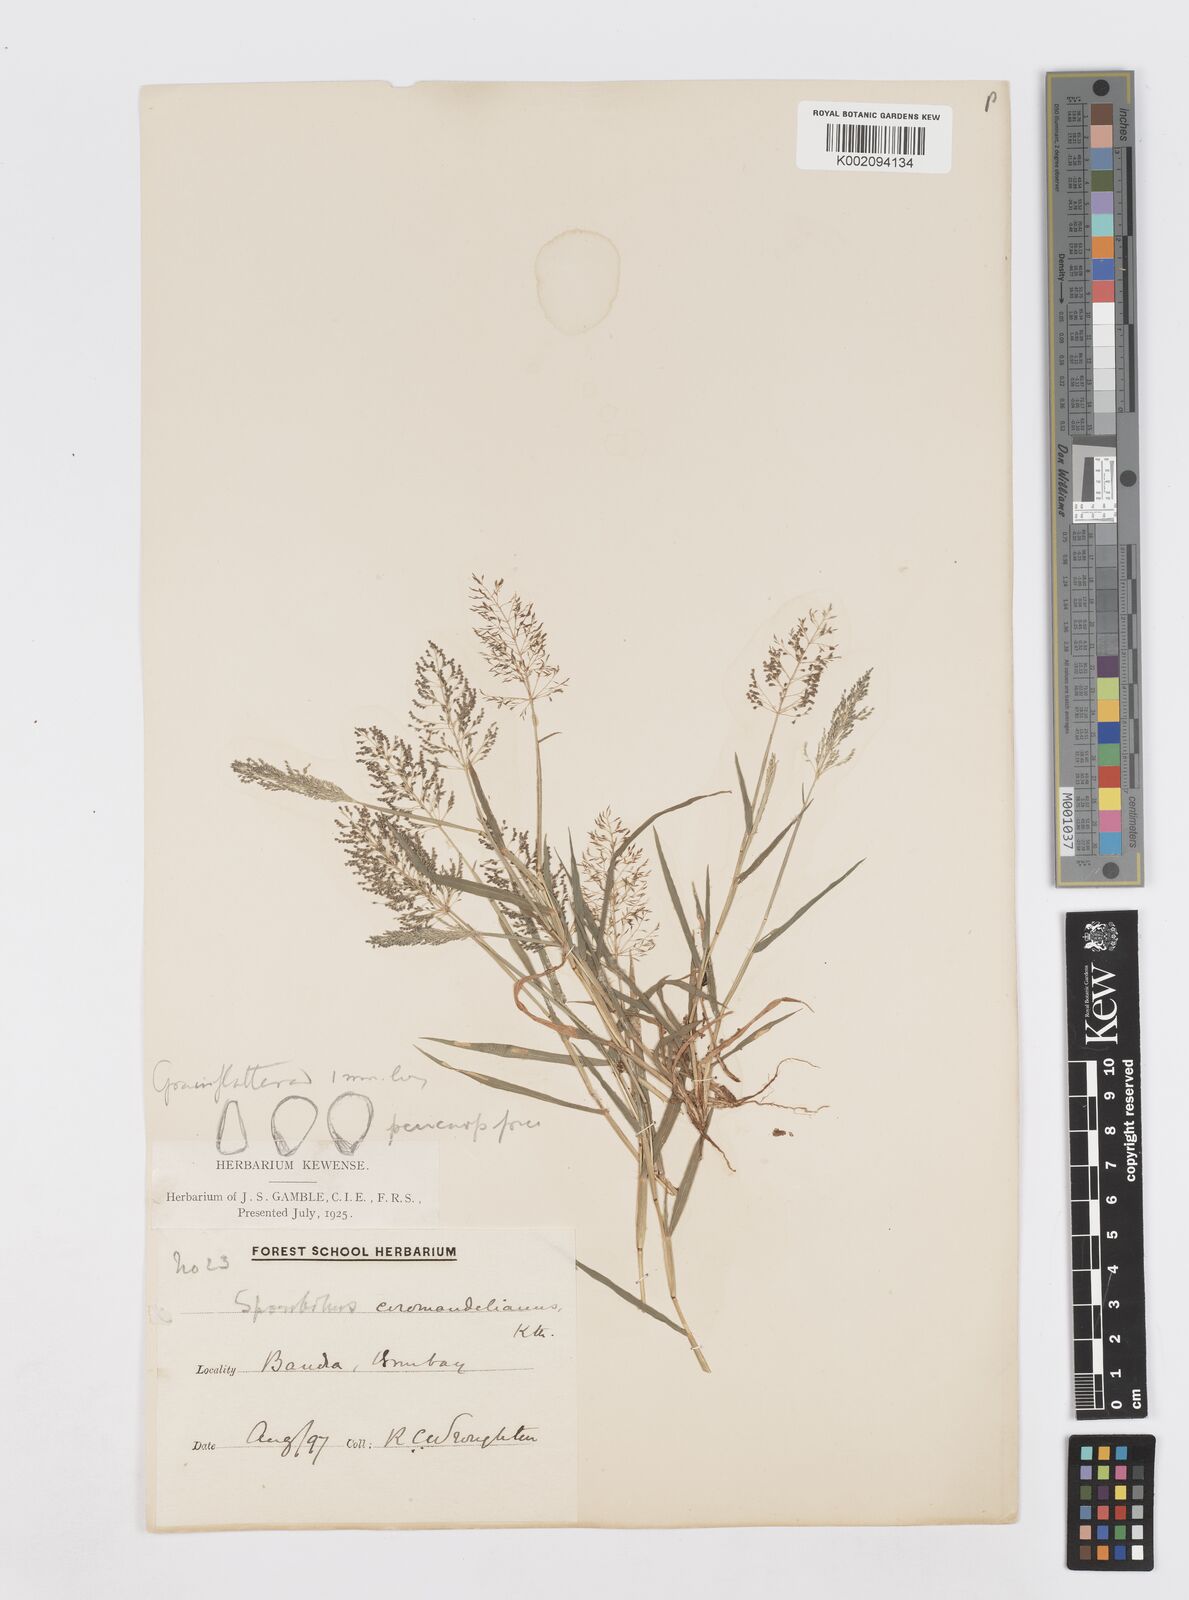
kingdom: Plantae
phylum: Tracheophyta
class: Liliopsida
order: Poales
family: Poaceae
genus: Sporobolus
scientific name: Sporobolus coromandelianus
